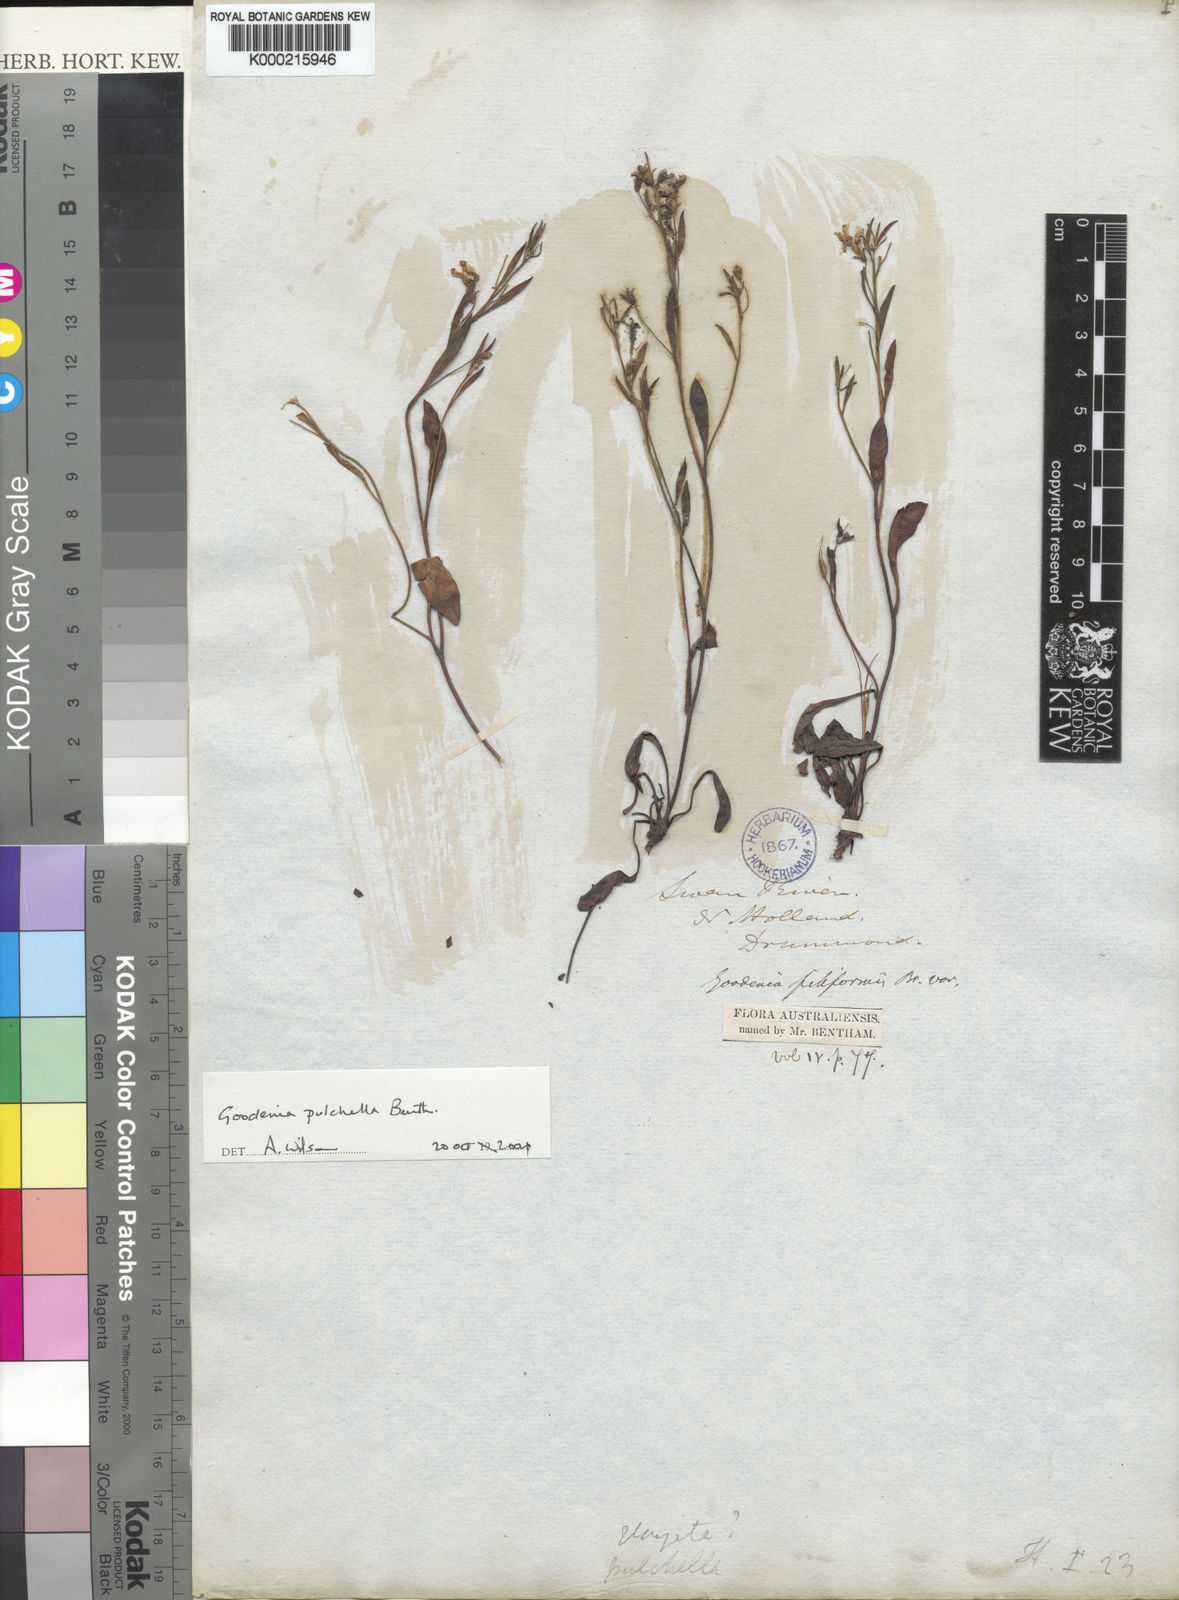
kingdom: Plantae
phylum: Tracheophyta
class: Magnoliopsida
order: Asterales
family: Goodeniaceae
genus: Goodenia
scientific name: Goodenia pulchella
